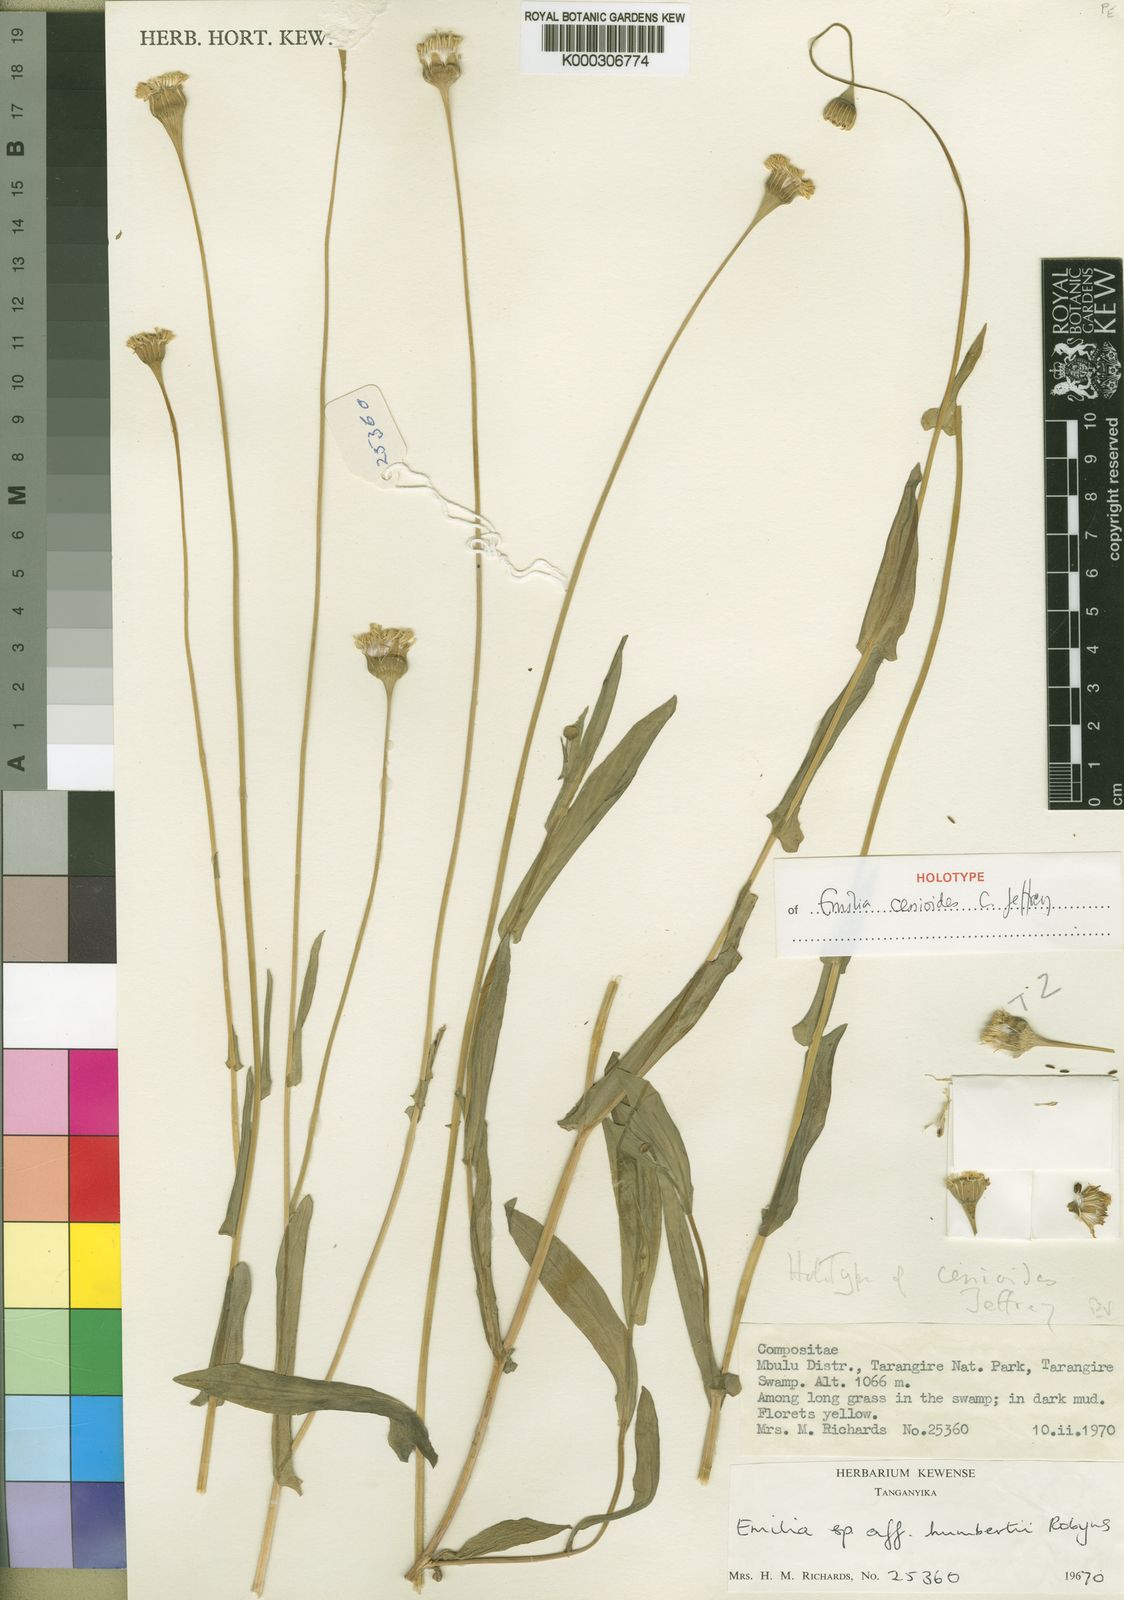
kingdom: Plantae
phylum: Tracheophyta
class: Magnoliopsida
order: Asterales
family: Asteraceae
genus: Emilia
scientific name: Emilia cenioides
